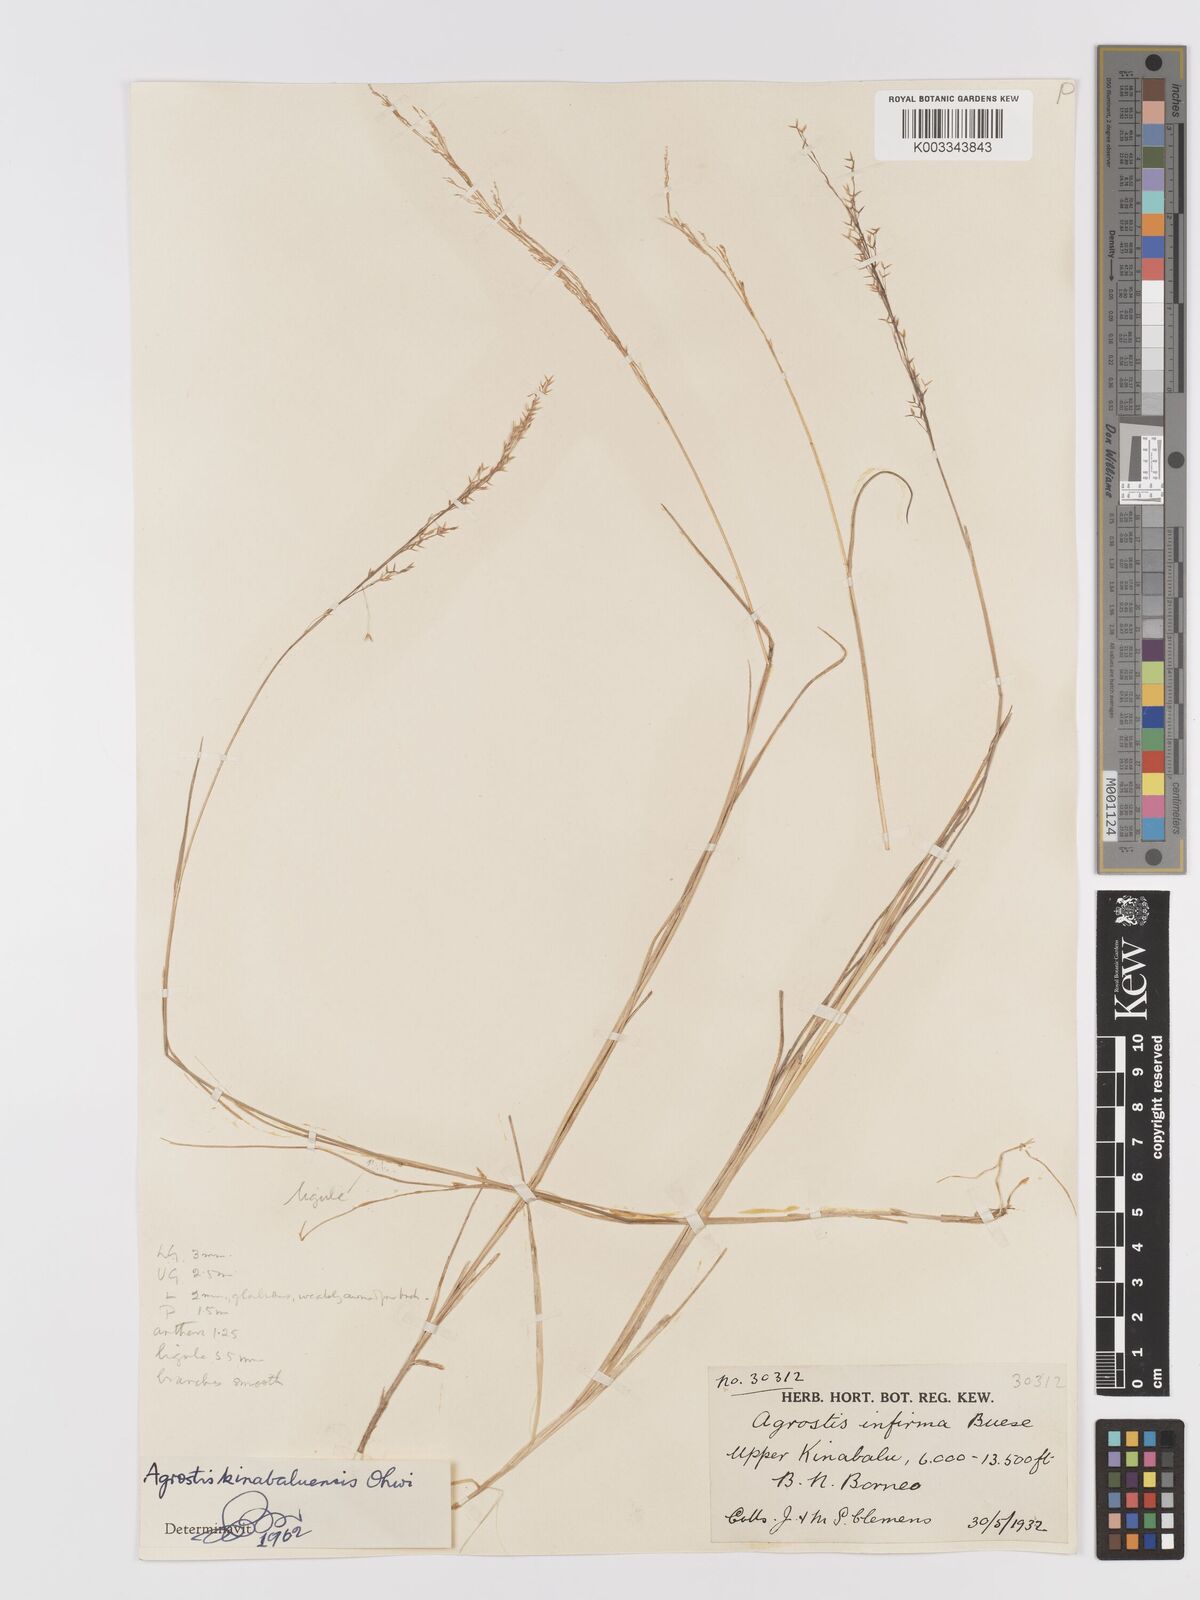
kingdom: Plantae
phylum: Tracheophyta
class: Liliopsida
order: Poales
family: Poaceae
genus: Agrostis
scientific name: Agrostis infirma
